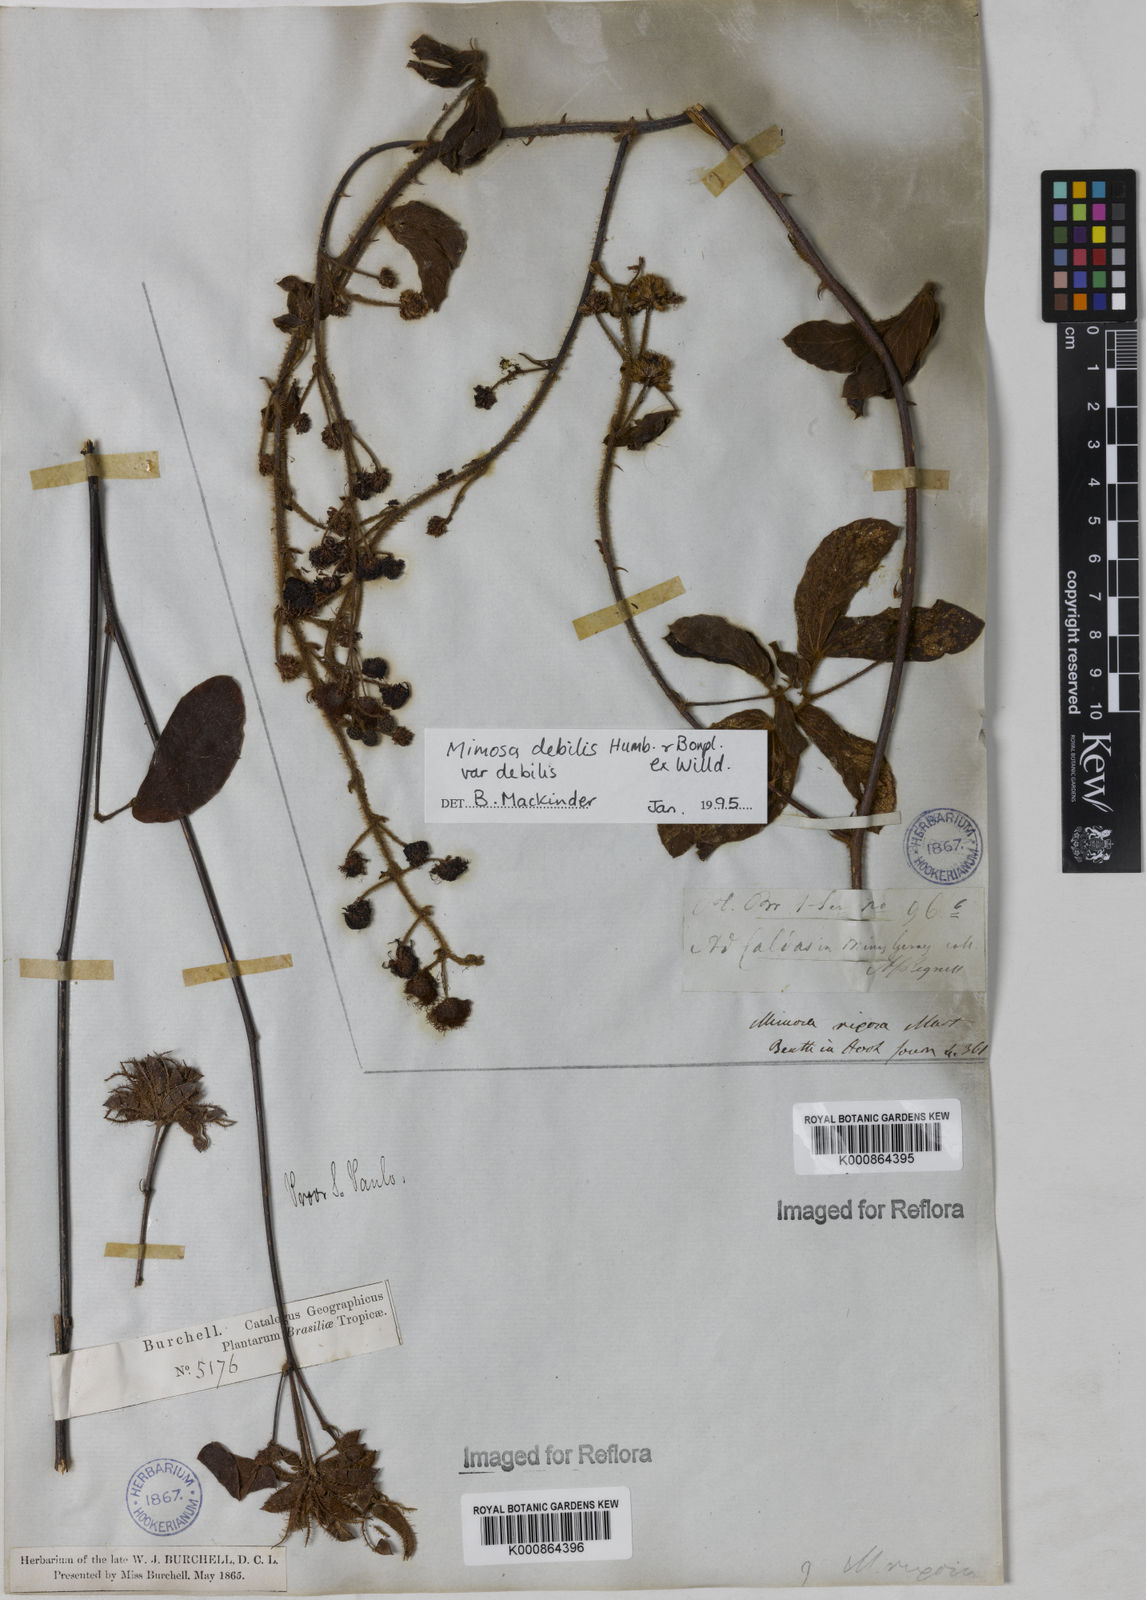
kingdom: Plantae
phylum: Tracheophyta
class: Magnoliopsida
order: Fabales
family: Fabaceae
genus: Mimosa
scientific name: Mimosa debilis
